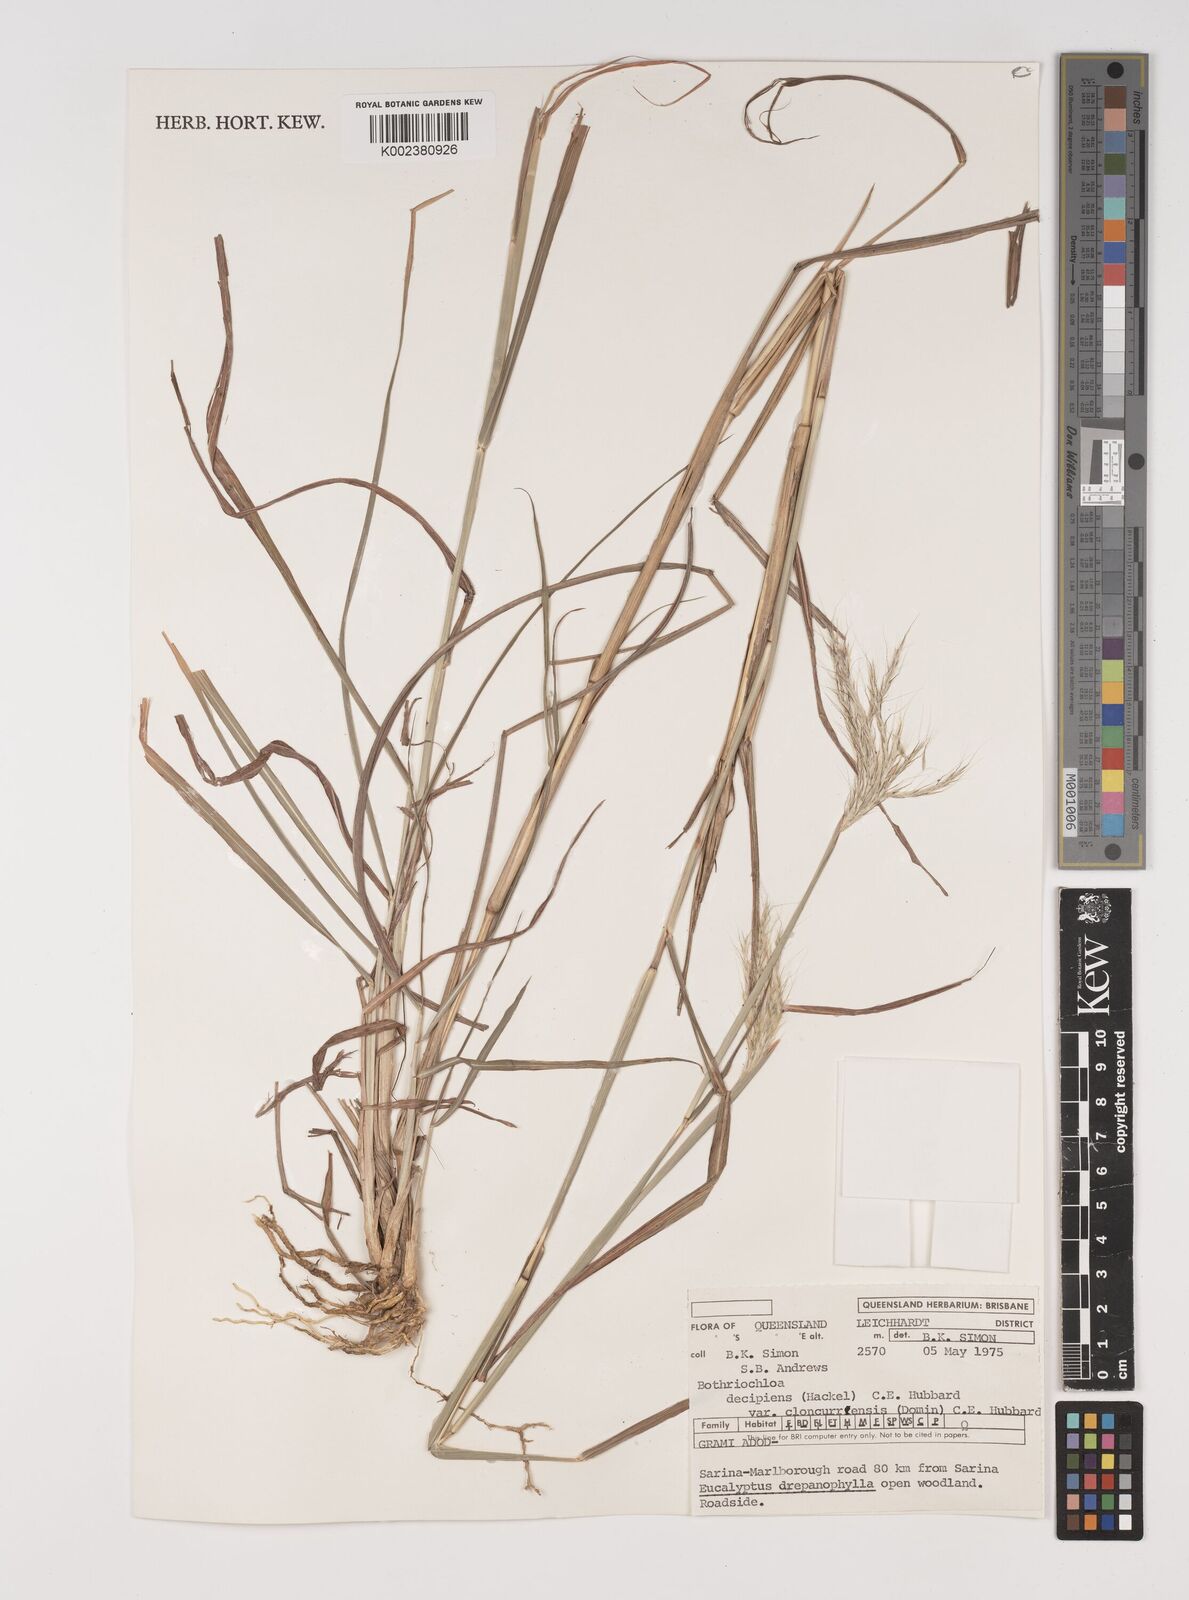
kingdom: Plantae
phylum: Tracheophyta
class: Liliopsida
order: Poales
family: Poaceae
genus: Bothriochloa
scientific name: Bothriochloa decipiens
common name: Pitted-bluegrass
